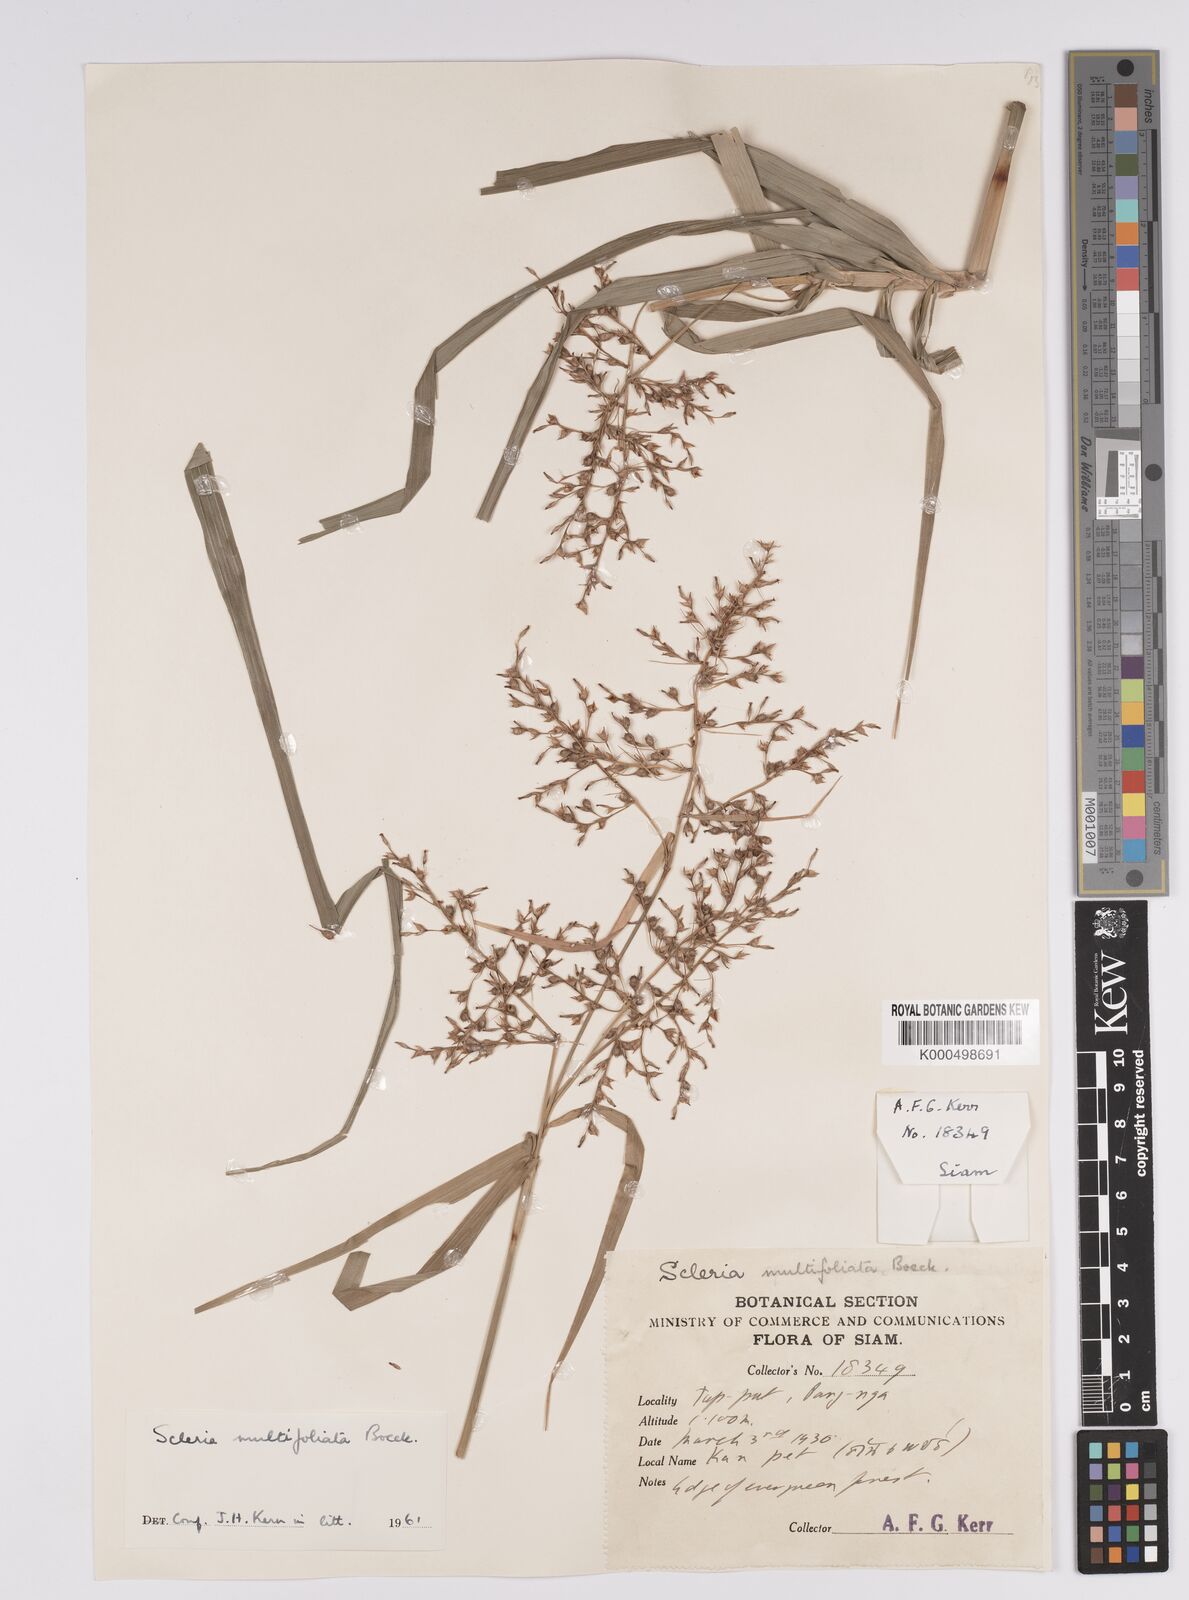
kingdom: Plantae
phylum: Tracheophyta
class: Liliopsida
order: Poales
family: Cyperaceae
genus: Scleria
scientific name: Scleria purpurascens
